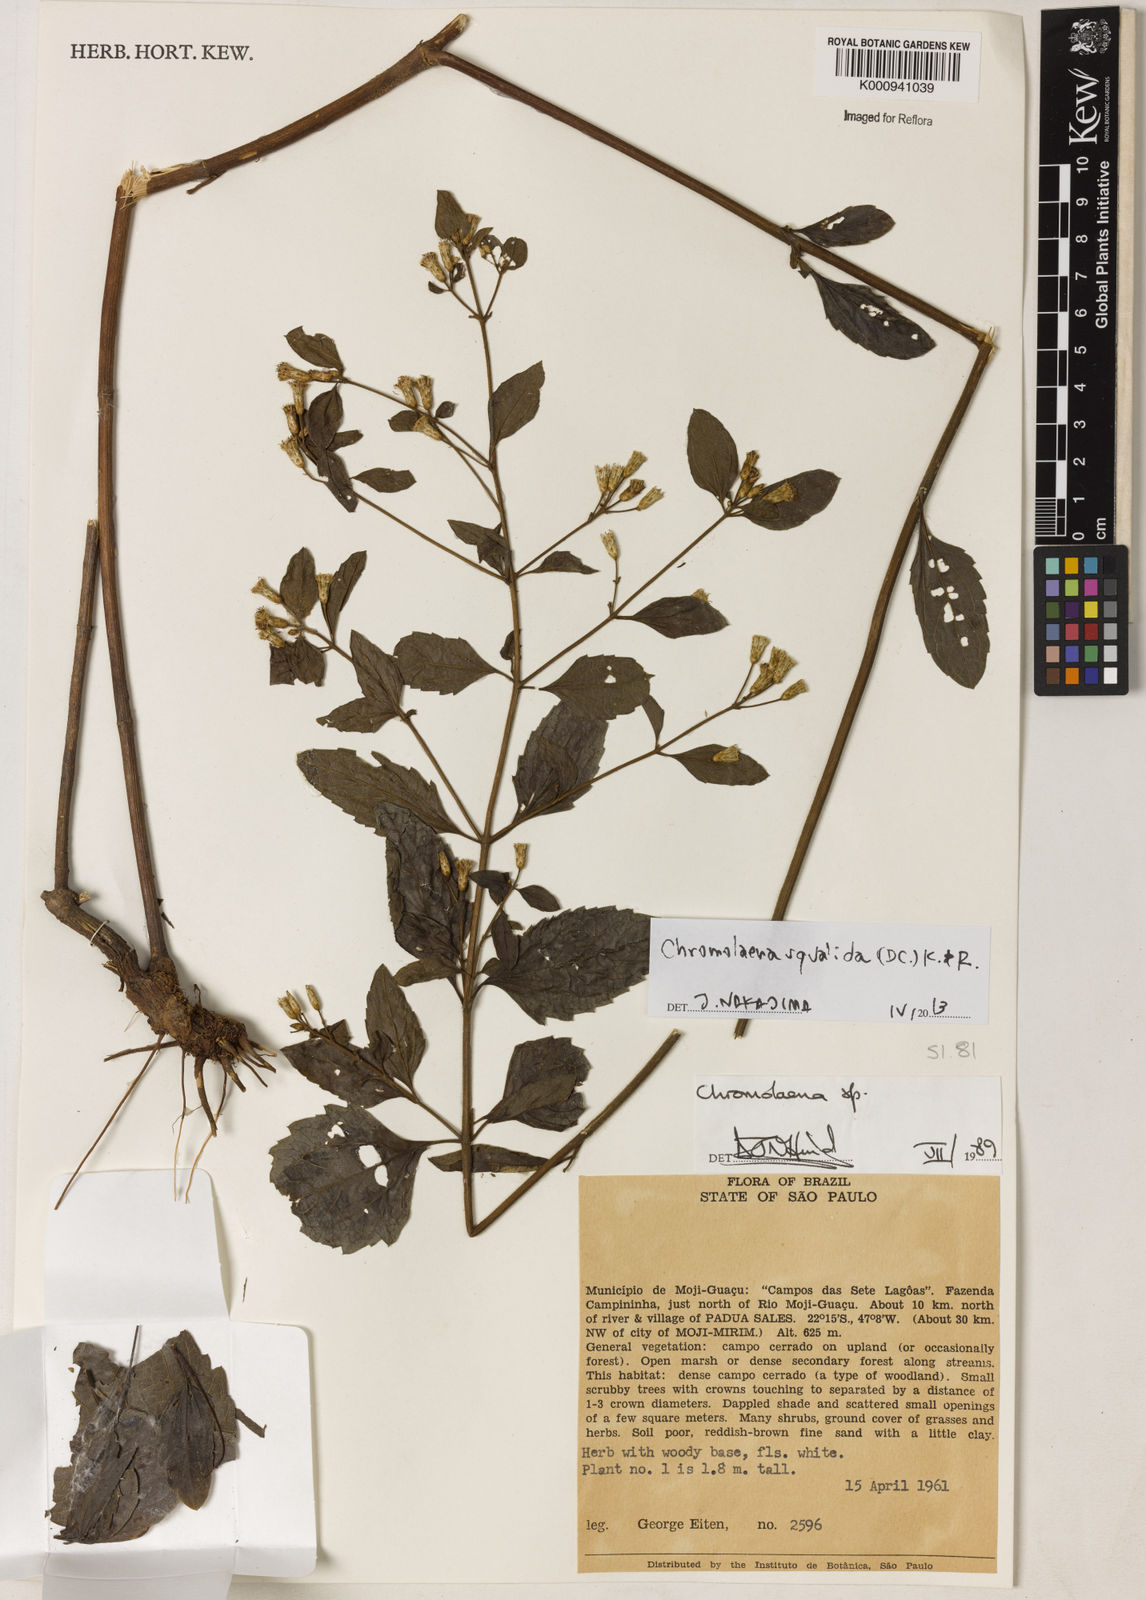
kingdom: Plantae
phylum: Tracheophyta
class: Magnoliopsida
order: Asterales
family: Asteraceae
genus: Chromolaena
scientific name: Chromolaena squalida
